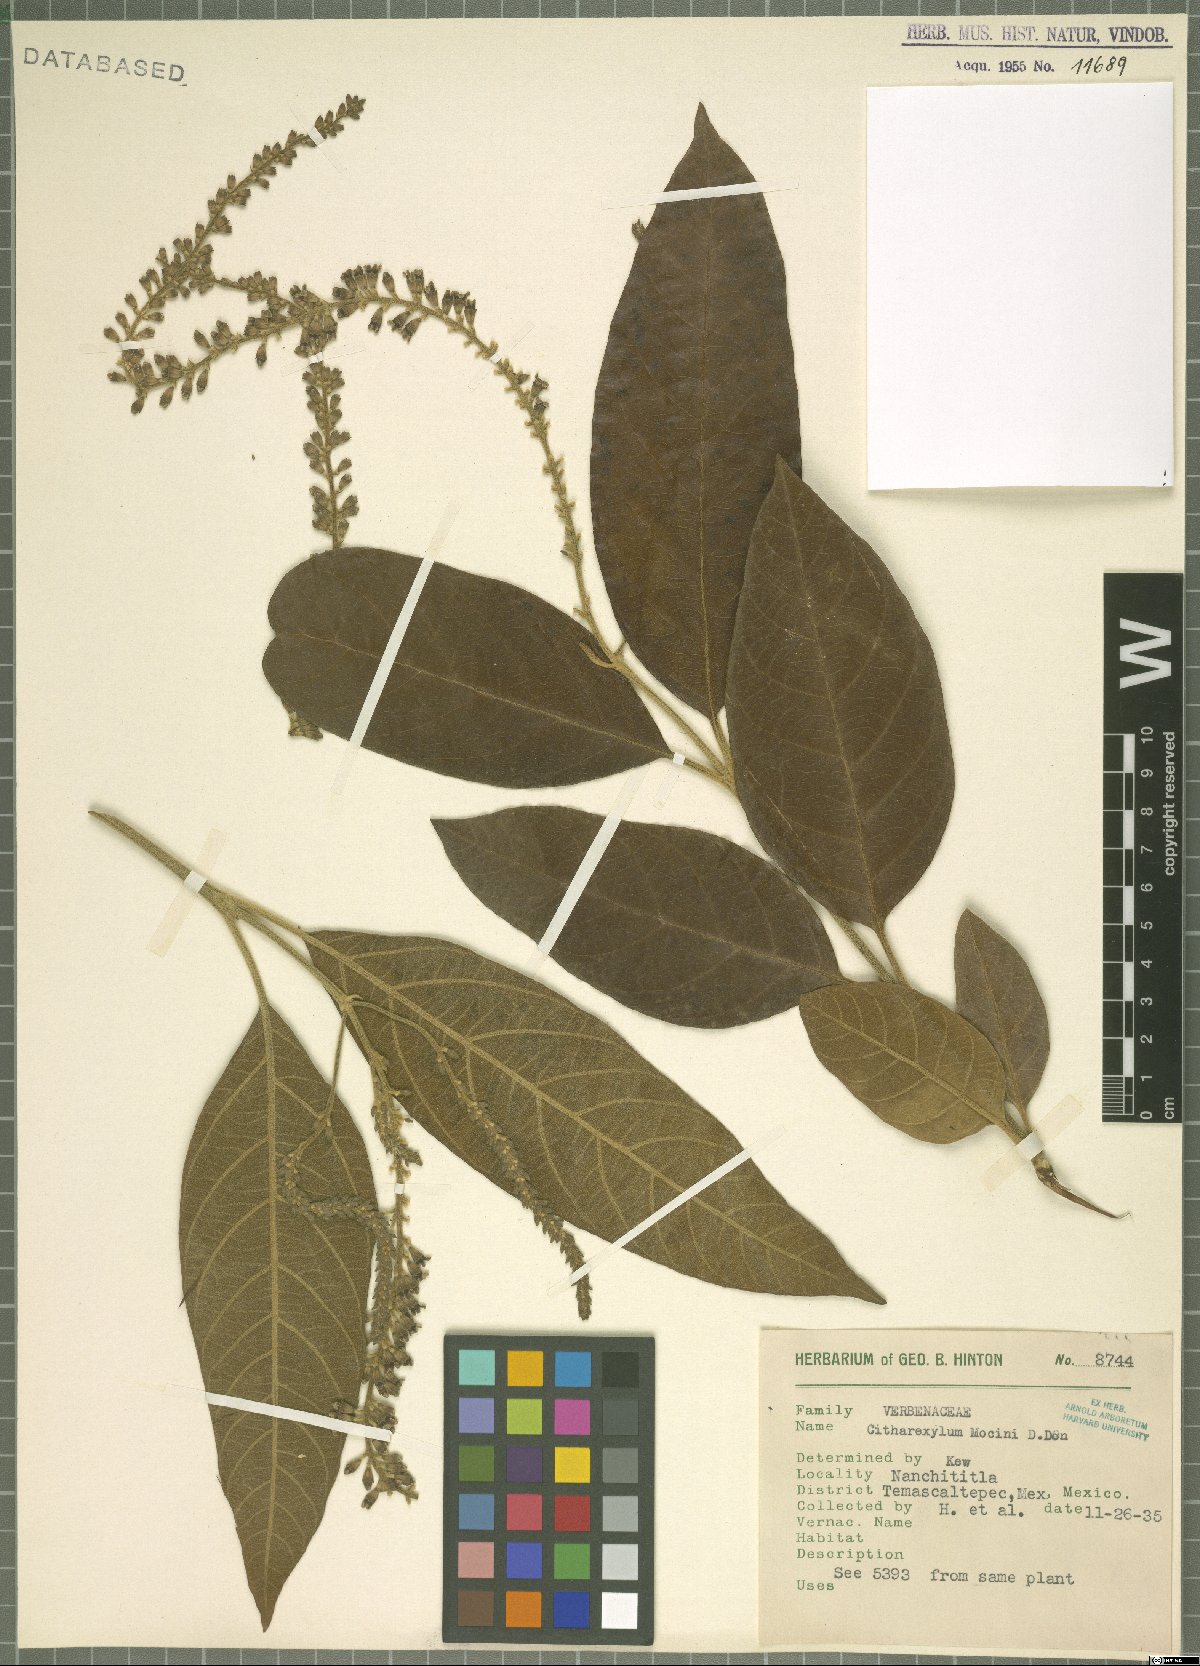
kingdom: Plantae
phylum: Tracheophyta
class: Magnoliopsida
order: Lamiales
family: Verbenaceae
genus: Citharexylum
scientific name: Citharexylum mocinoi
